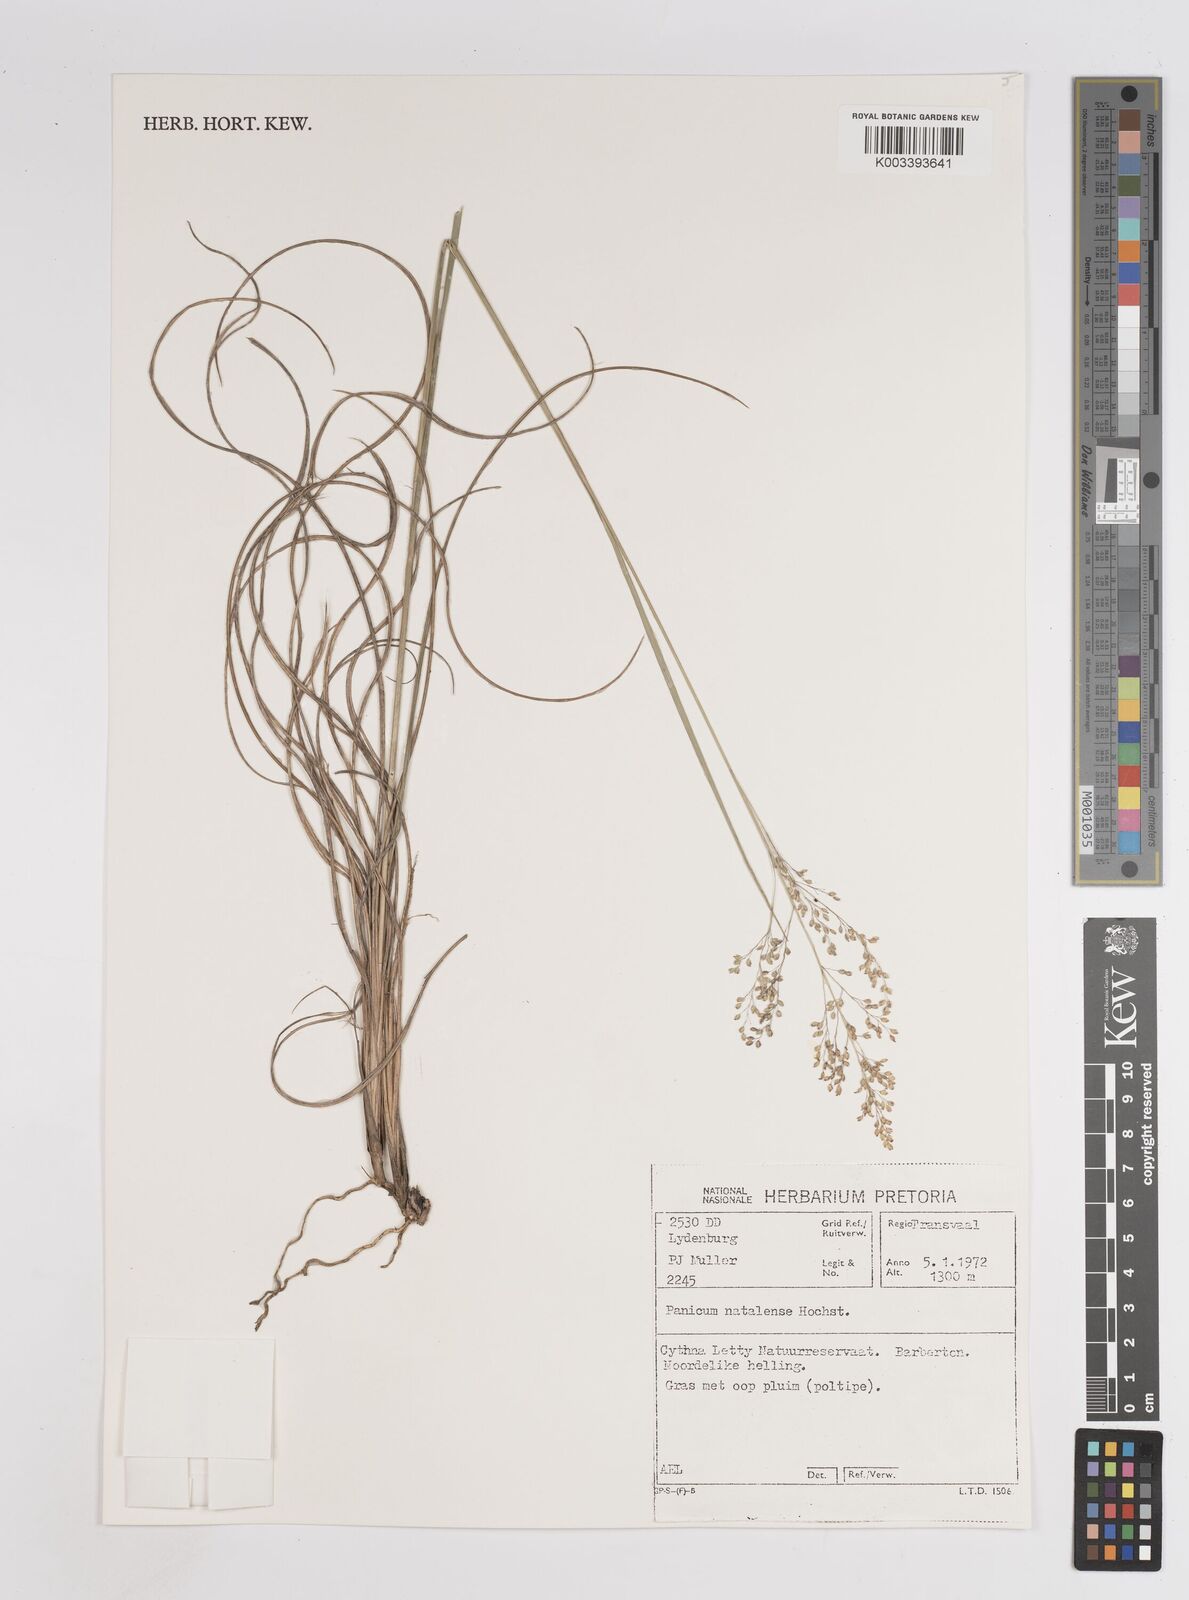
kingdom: Plantae
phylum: Tracheophyta
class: Liliopsida
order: Poales
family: Poaceae
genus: Trichanthecium
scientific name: Trichanthecium natalense
